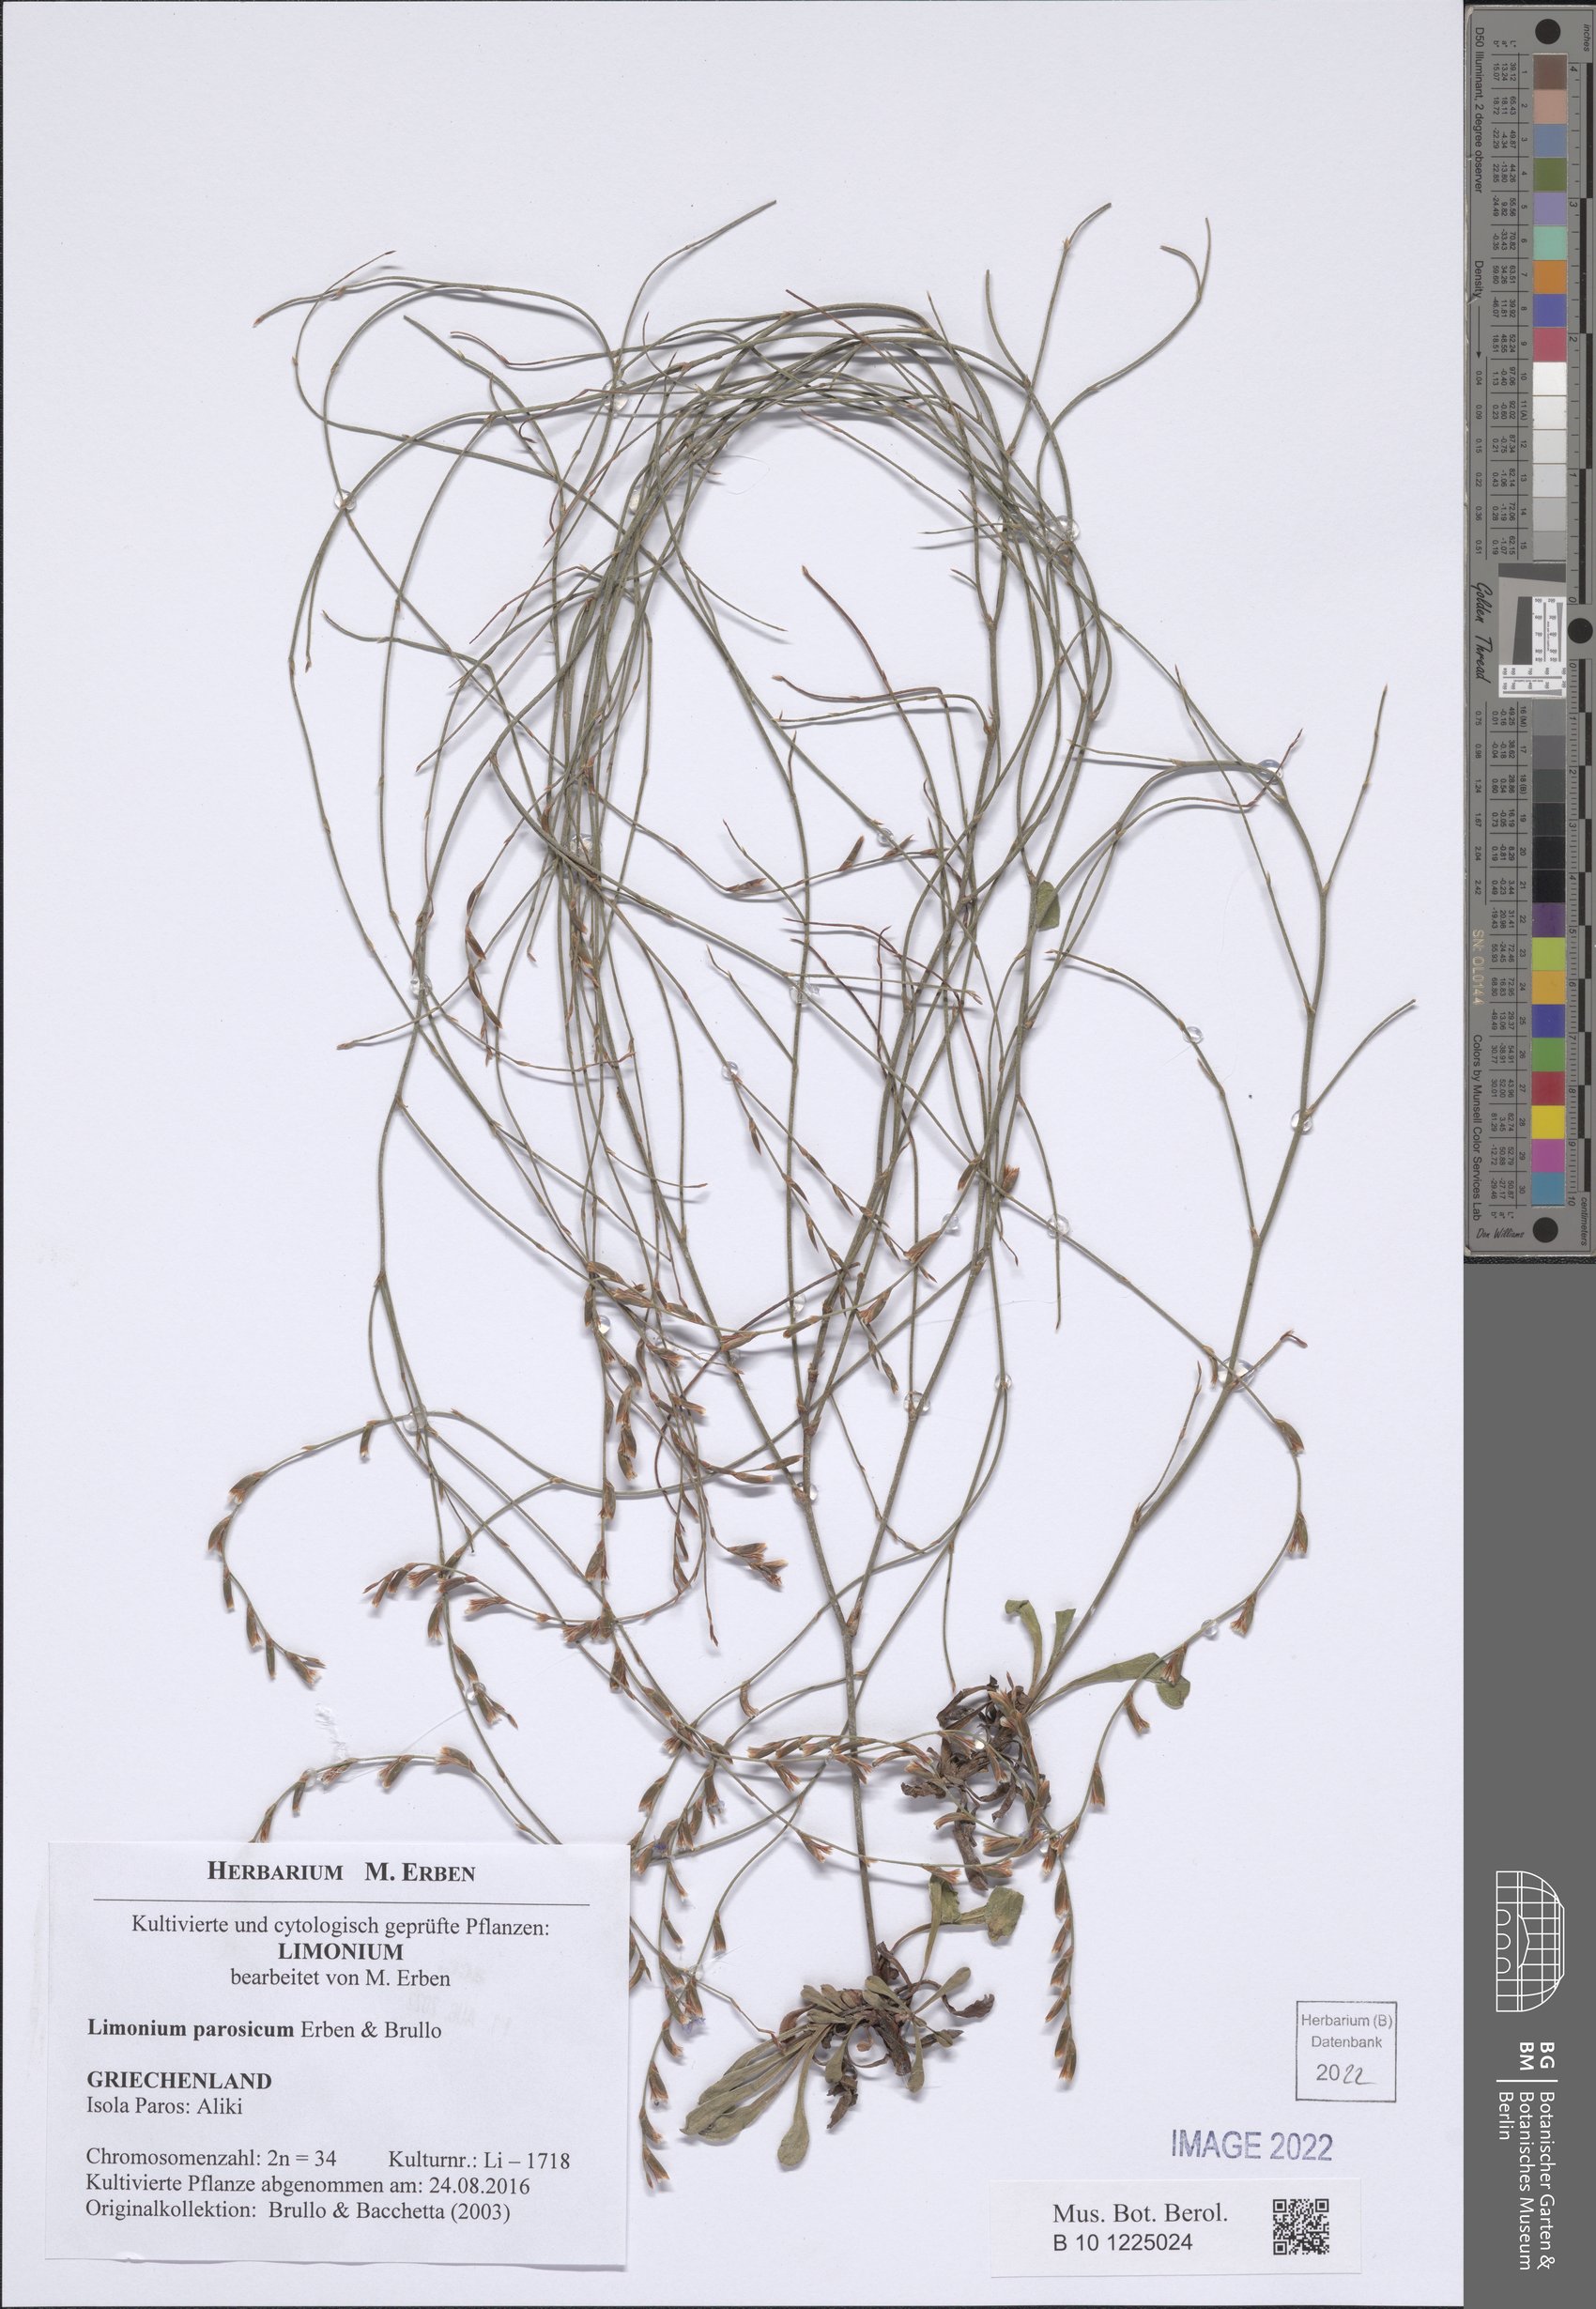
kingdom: Plantae
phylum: Tracheophyta
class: Magnoliopsida
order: Caryophyllales
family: Plumbaginaceae
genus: Limonium
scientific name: Limonium parosicum
